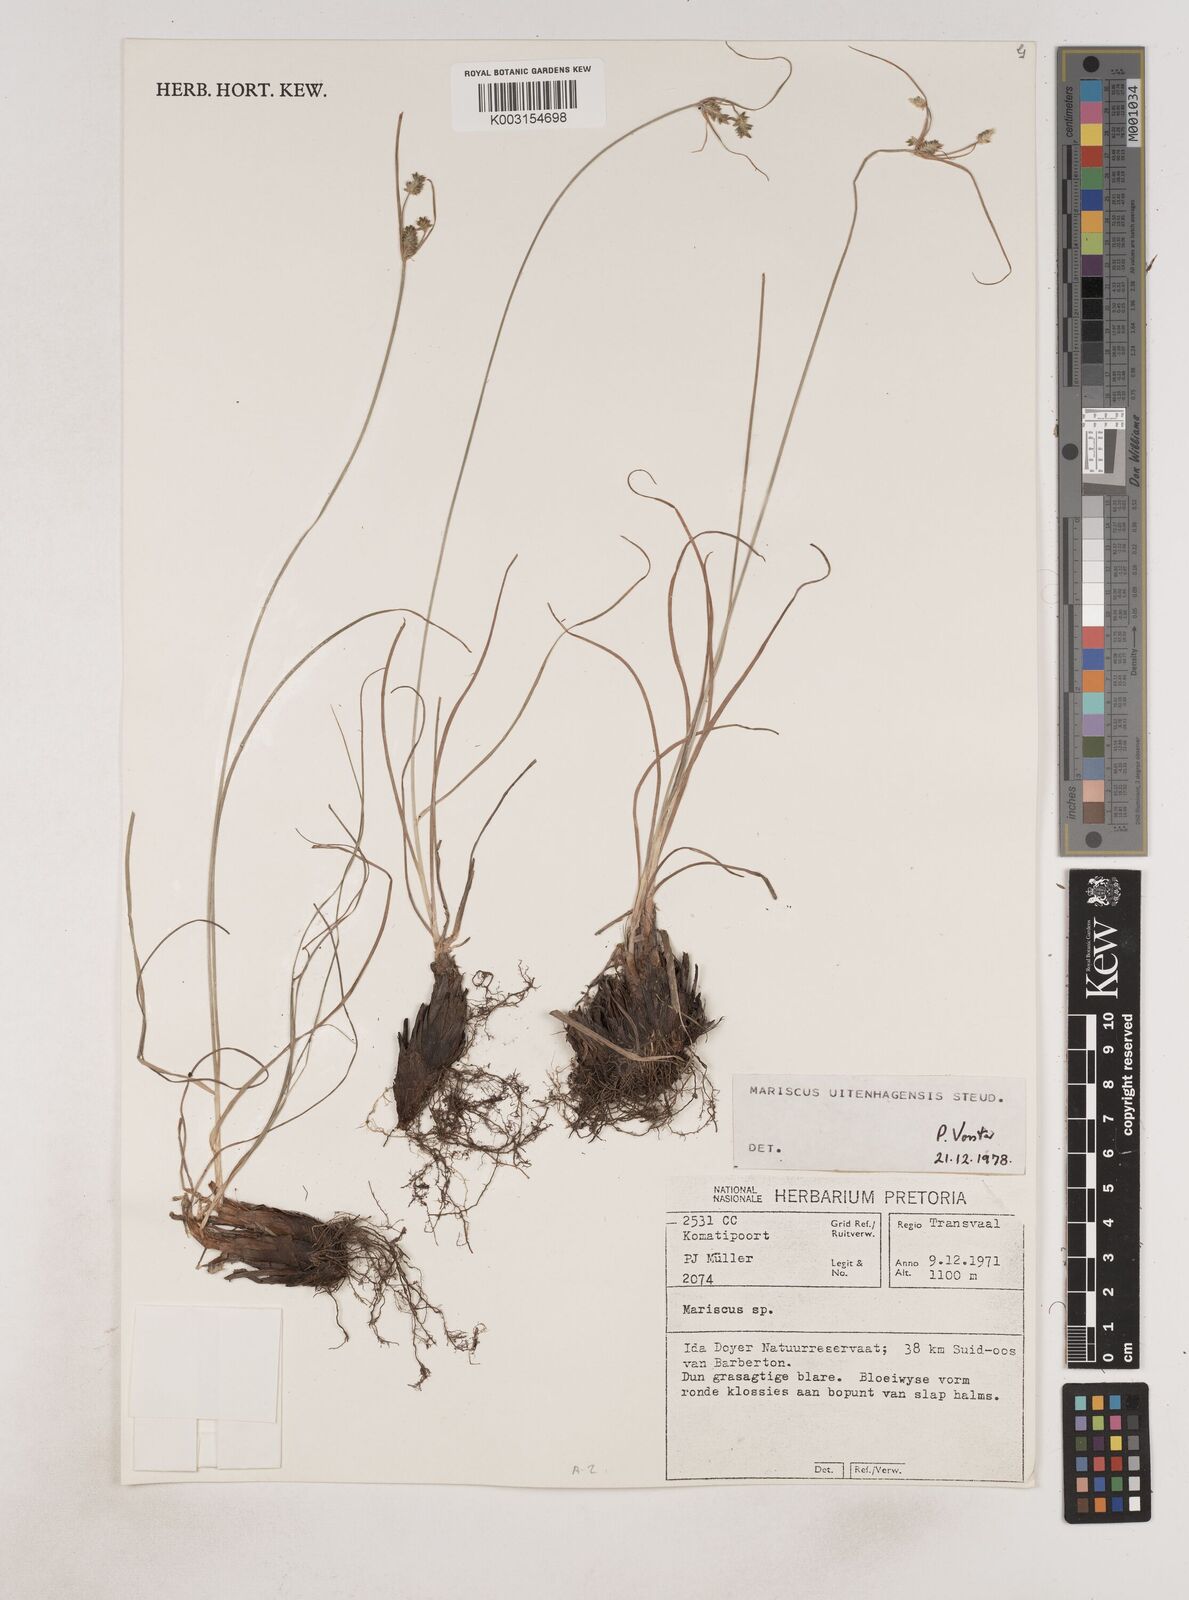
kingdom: Plantae
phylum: Tracheophyta
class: Liliopsida
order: Poales
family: Cyperaceae
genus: Cyperus
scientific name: Cyperus
